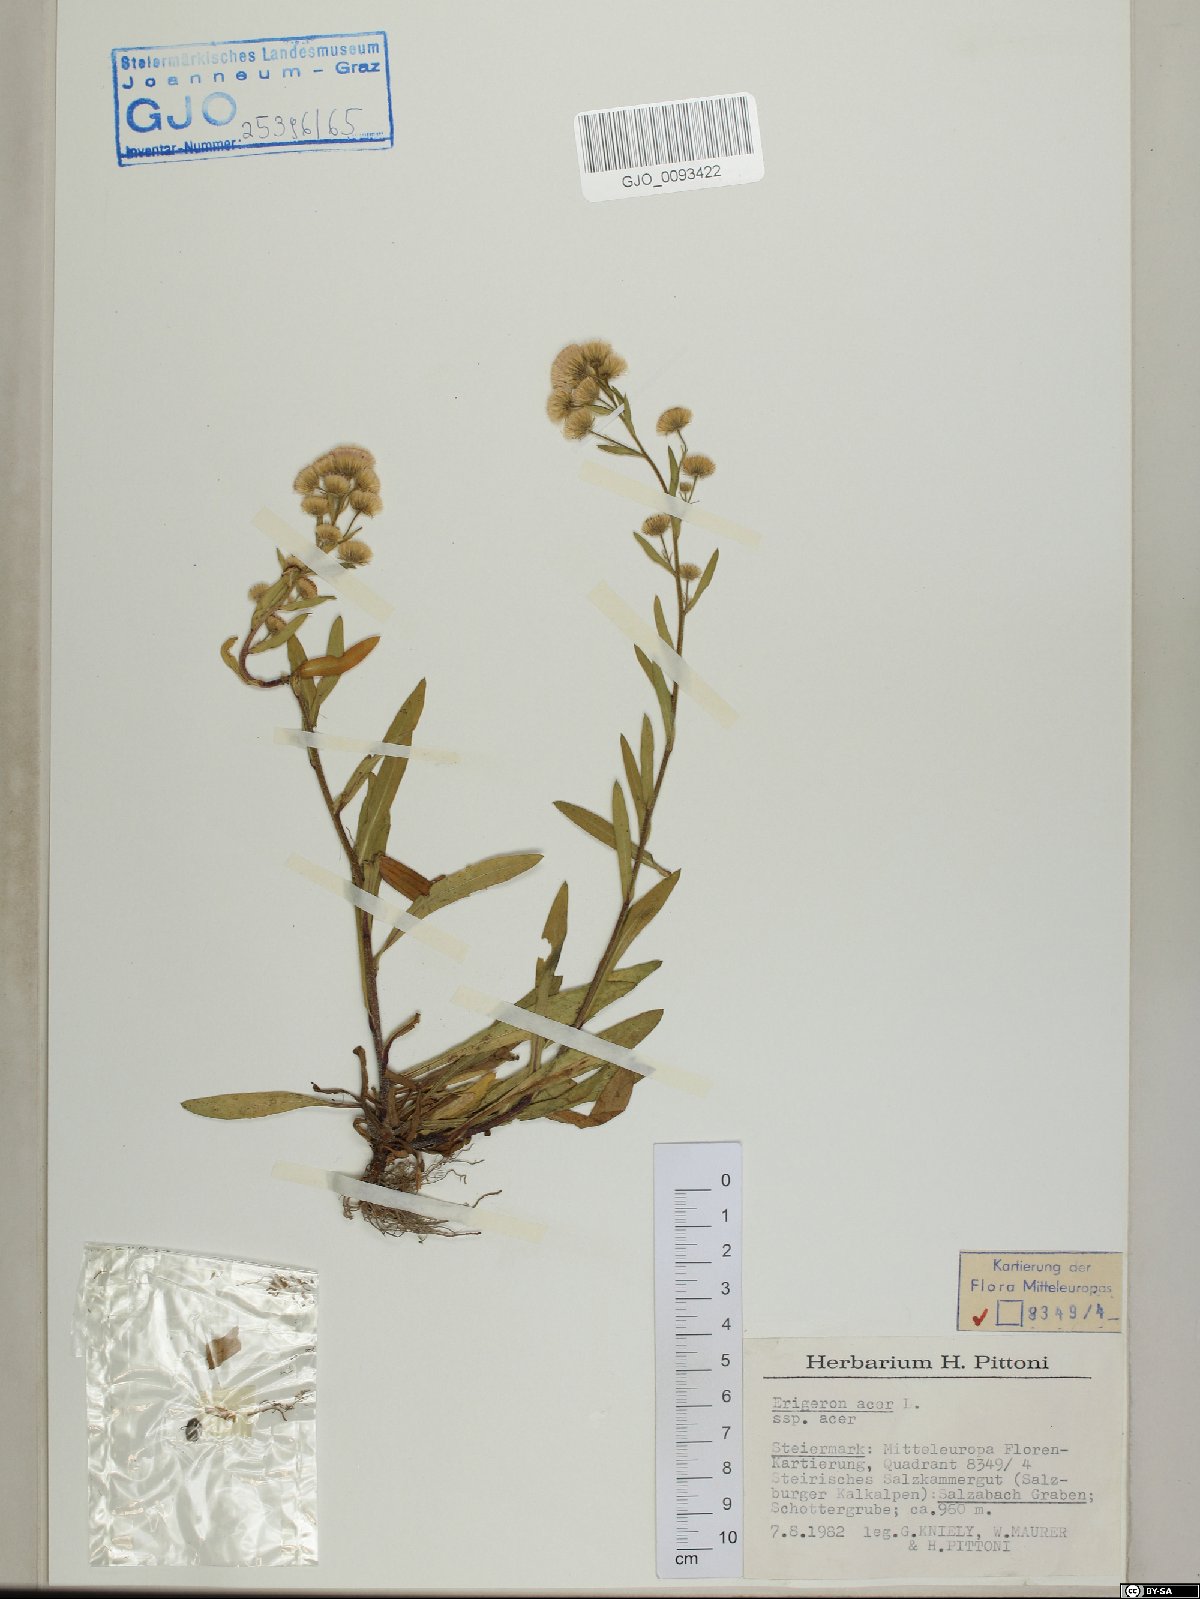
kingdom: Plantae
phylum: Tracheophyta
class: Magnoliopsida
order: Asterales
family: Asteraceae
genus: Erigeron
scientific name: Erigeron acris
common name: Blue fleabane
